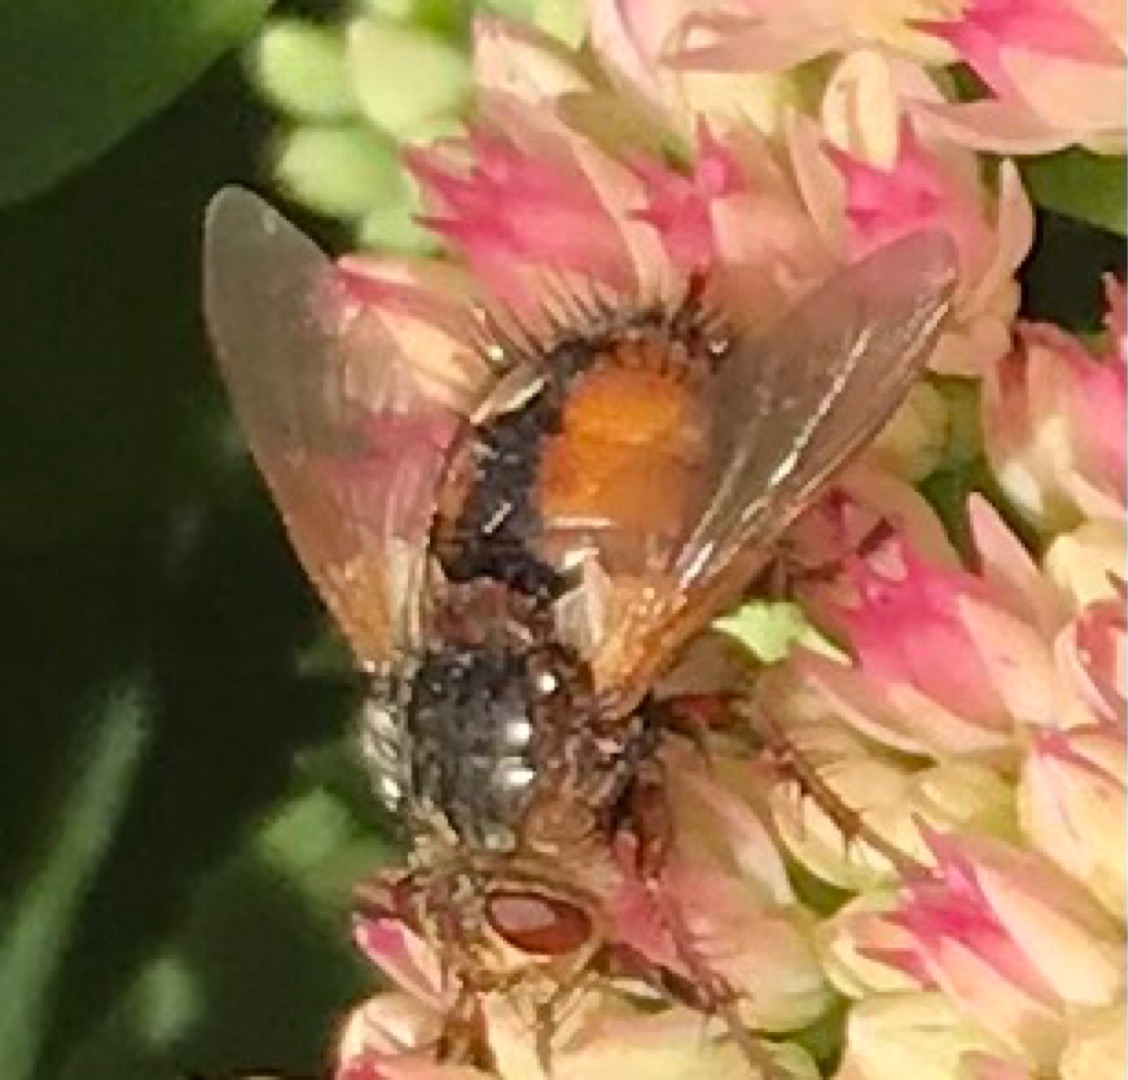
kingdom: Animalia
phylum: Arthropoda
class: Insecta
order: Diptera
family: Tachinidae
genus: Tachina
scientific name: Tachina fera
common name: Mellemfluen oskar
